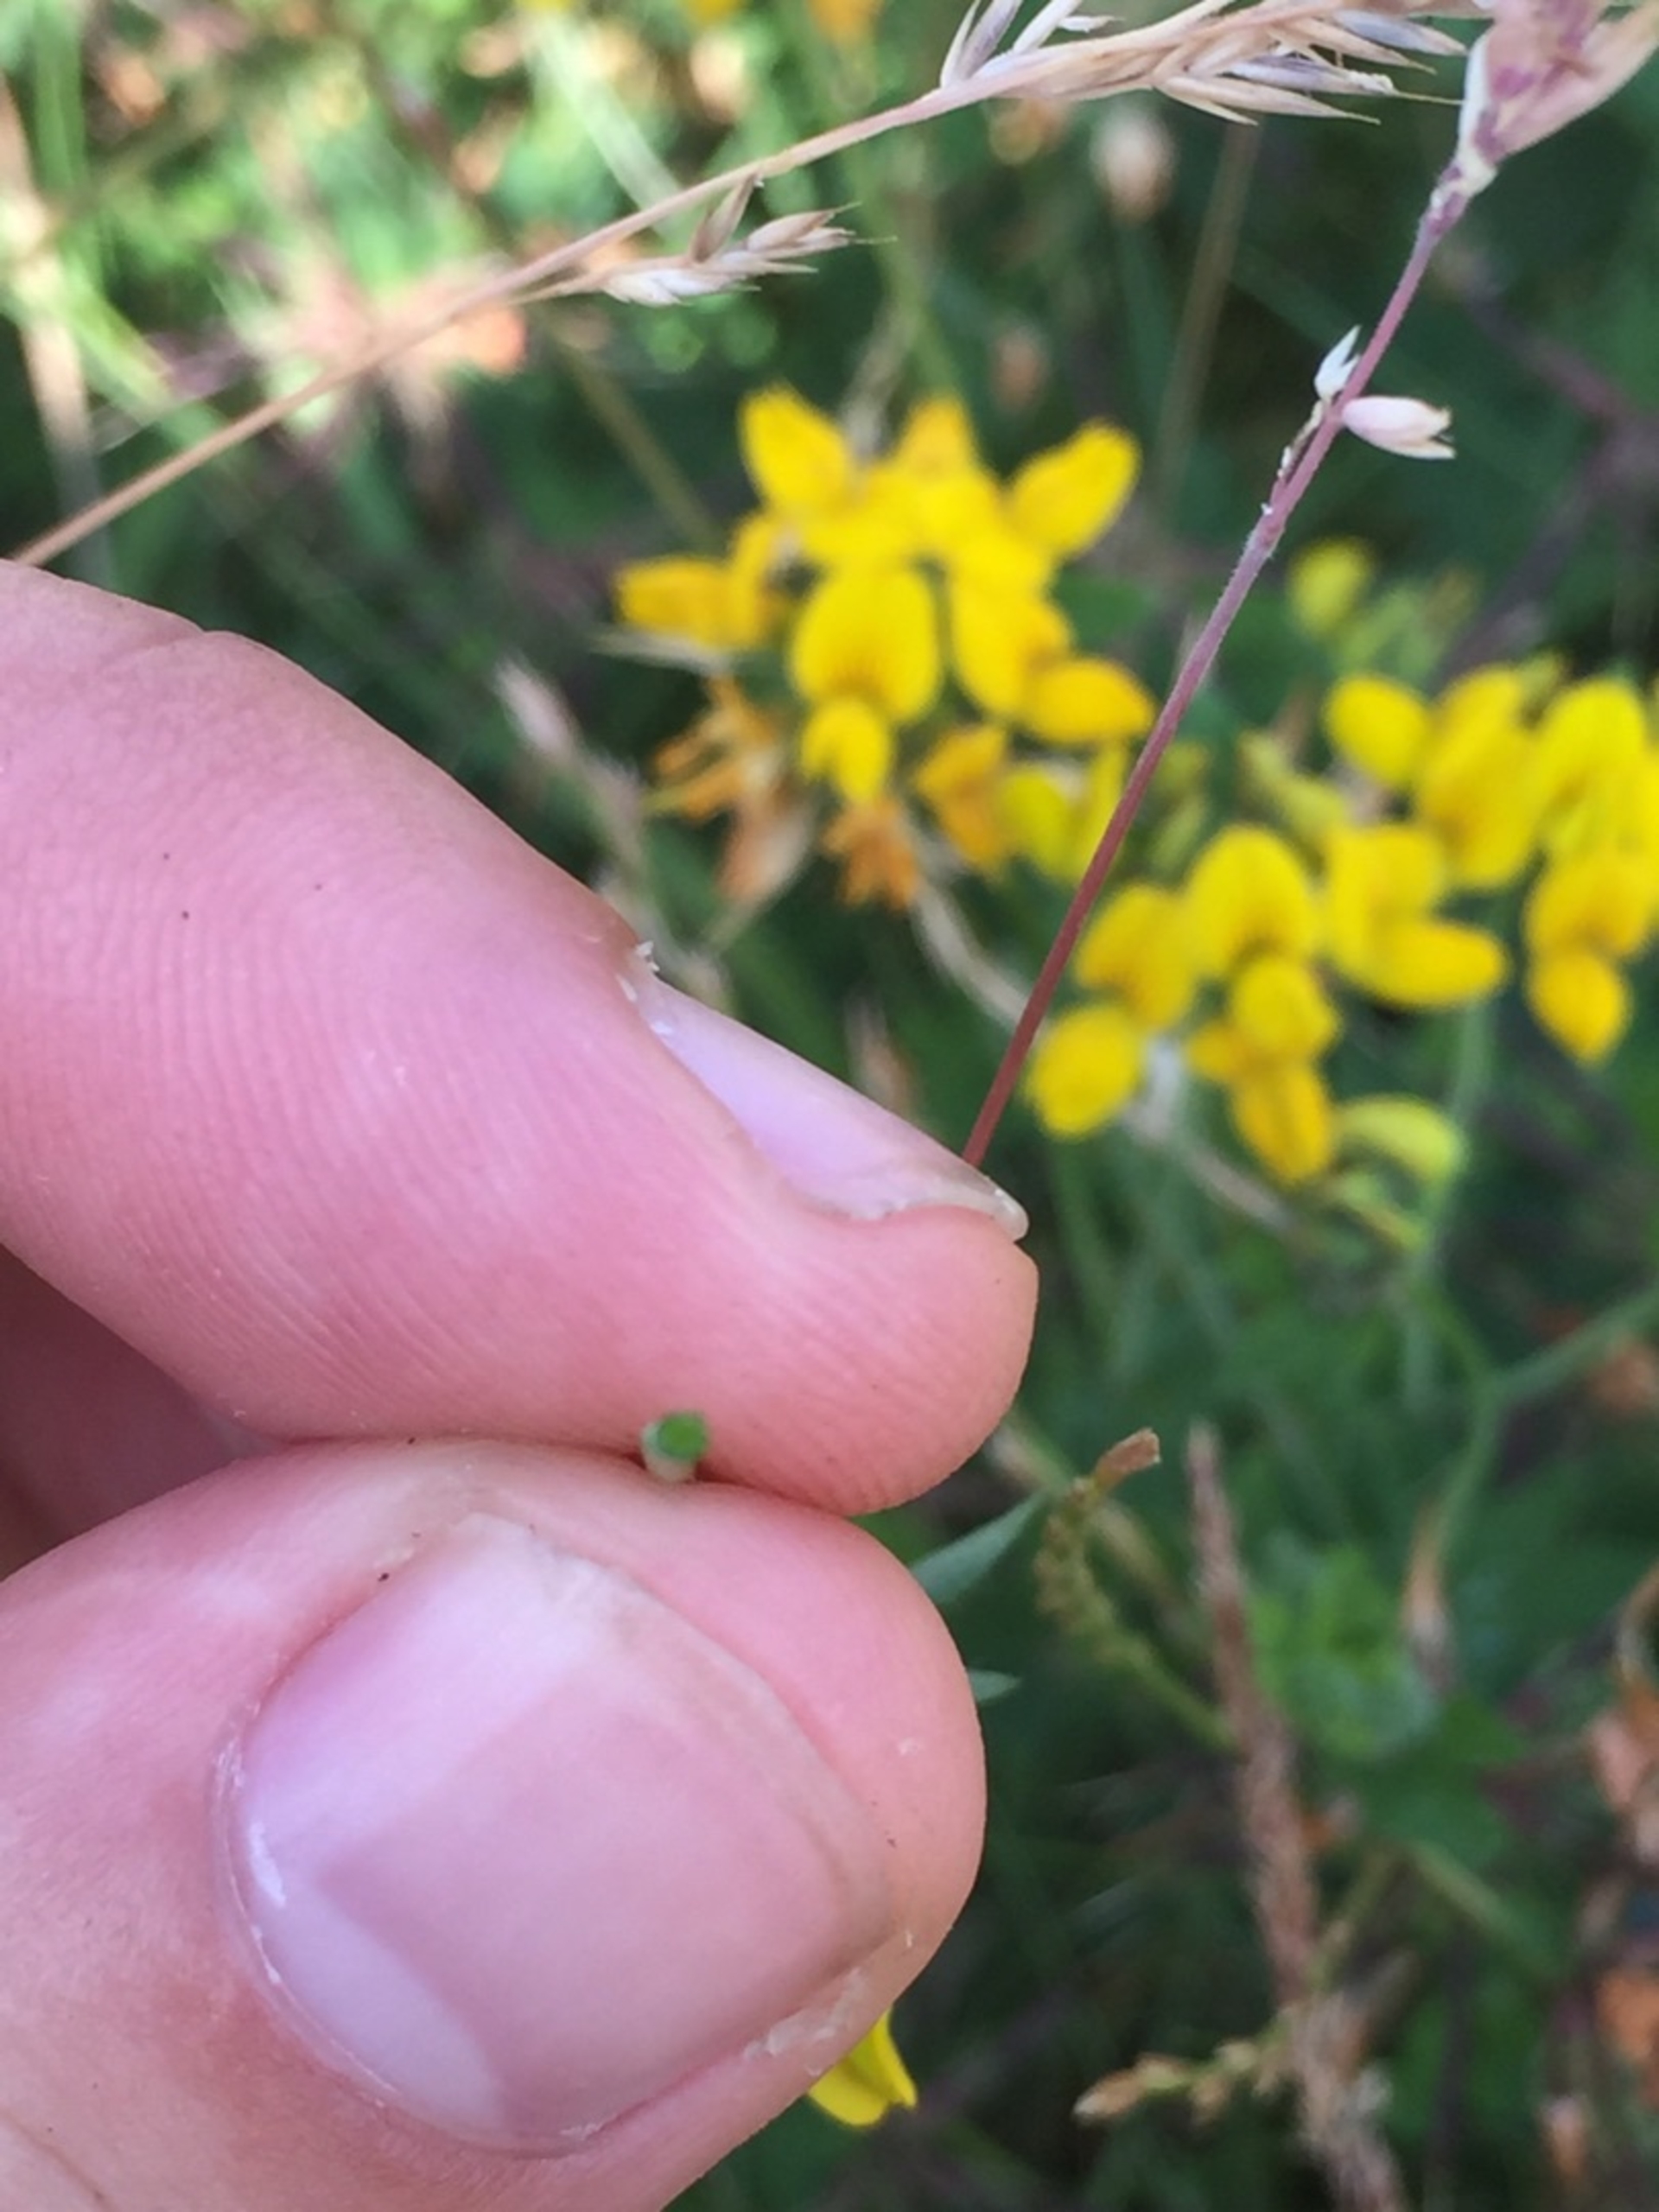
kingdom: Plantae
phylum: Tracheophyta
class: Magnoliopsida
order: Fabales
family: Fabaceae
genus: Lotus
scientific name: Lotus corniculatus
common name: Almindelig kællingetand
